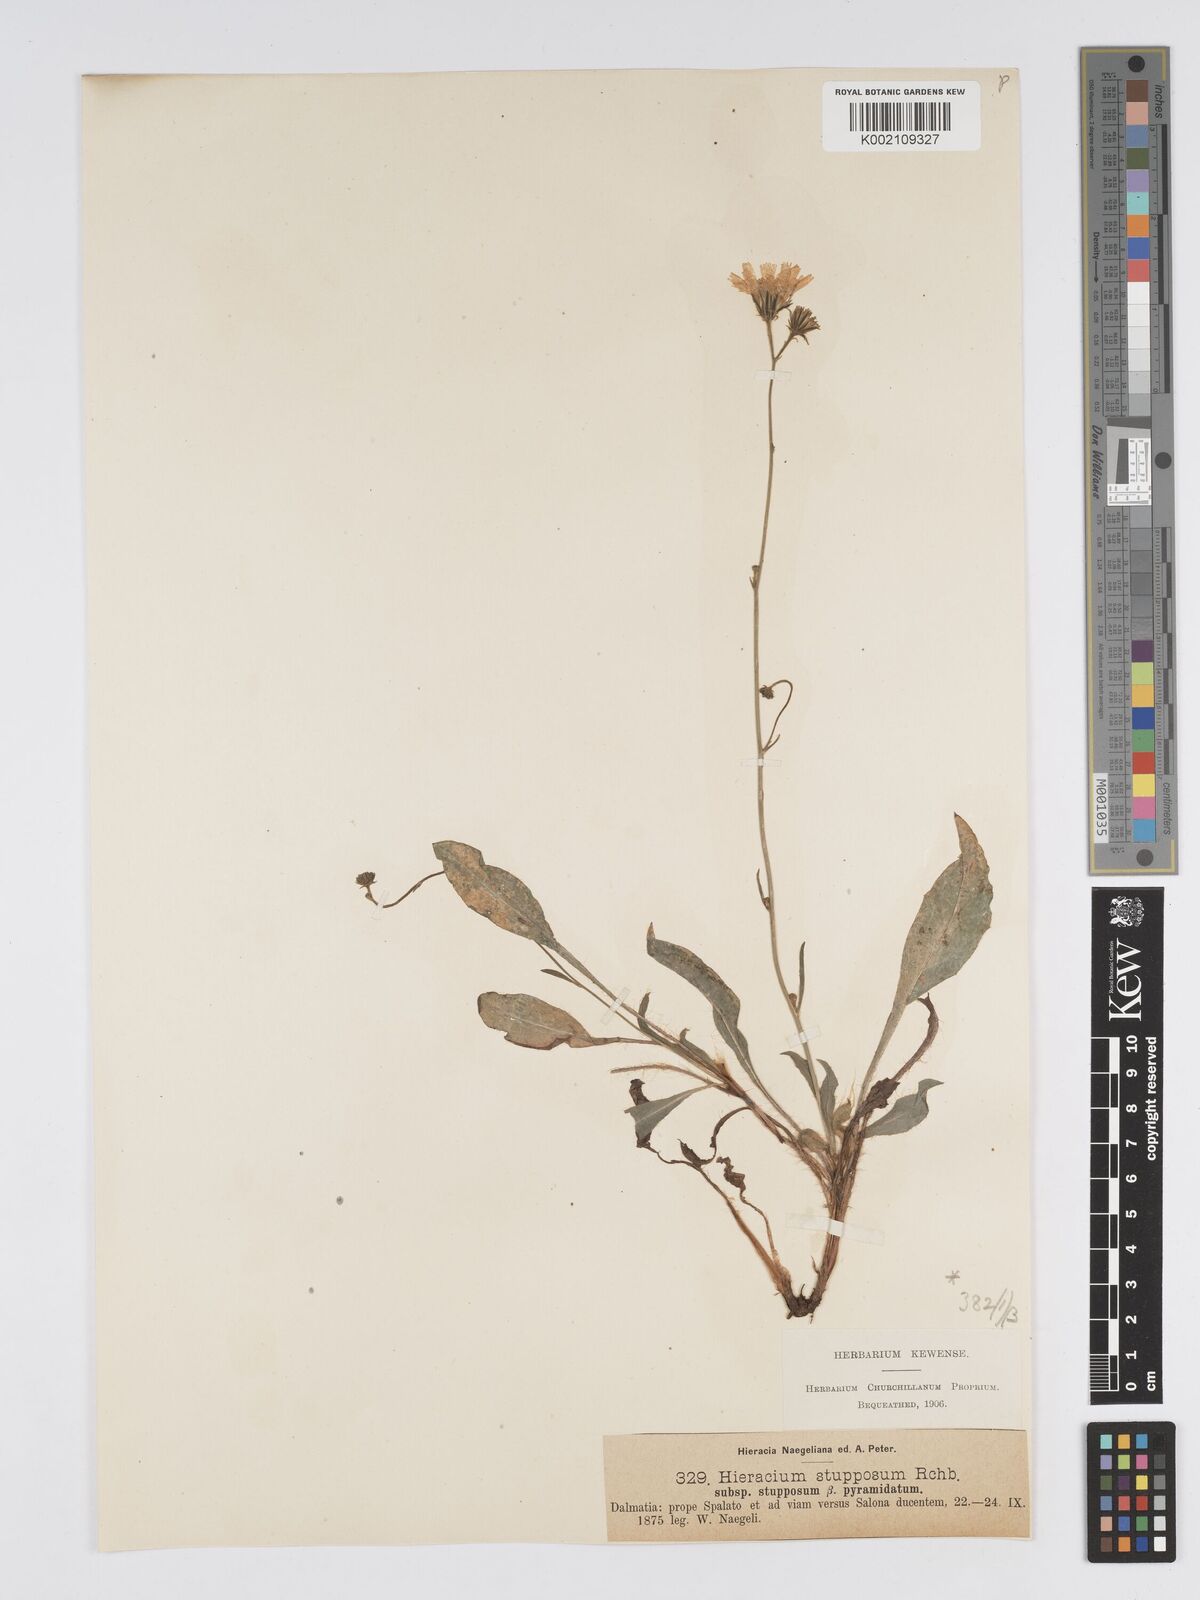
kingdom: Plantae
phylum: Tracheophyta
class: Magnoliopsida
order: Asterales
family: Asteraceae
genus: Hieracium
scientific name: Hieracium heterogynum
